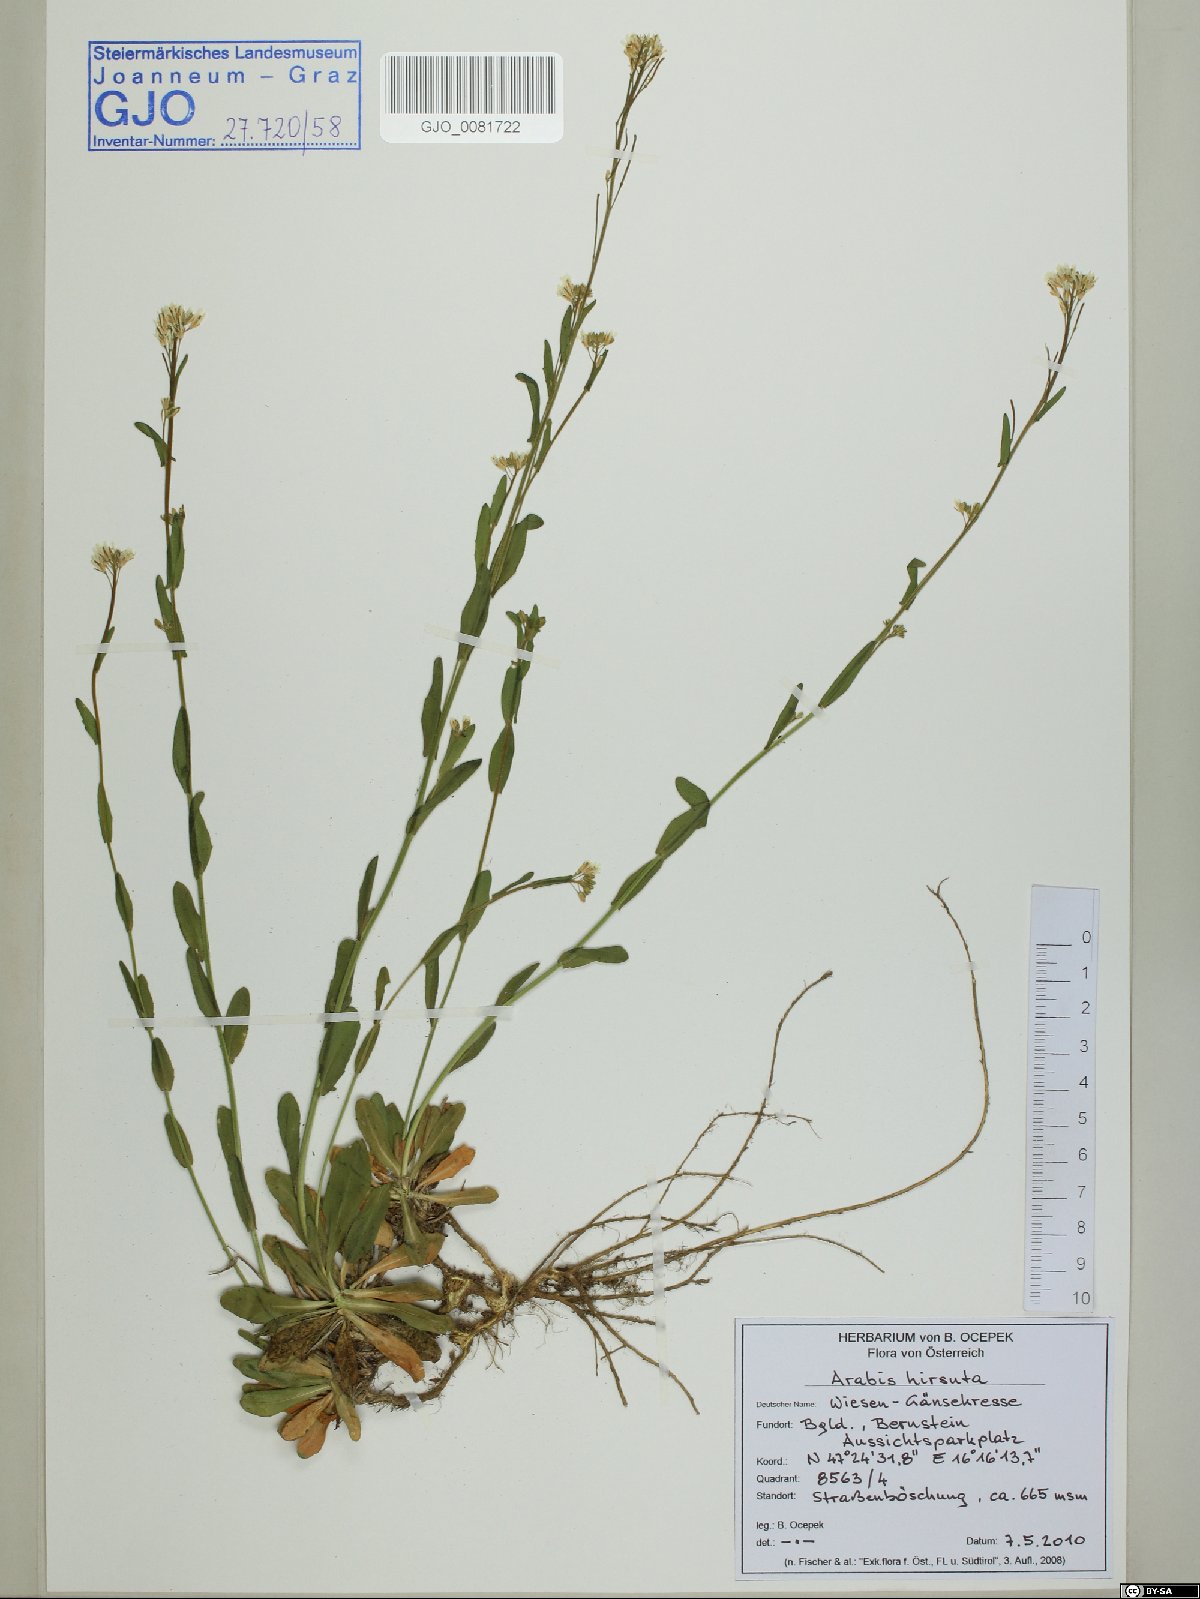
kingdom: Plantae
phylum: Tracheophyta
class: Magnoliopsida
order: Brassicales
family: Brassicaceae
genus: Arabis
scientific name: Arabis hirsuta
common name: Hairy rock-cress
